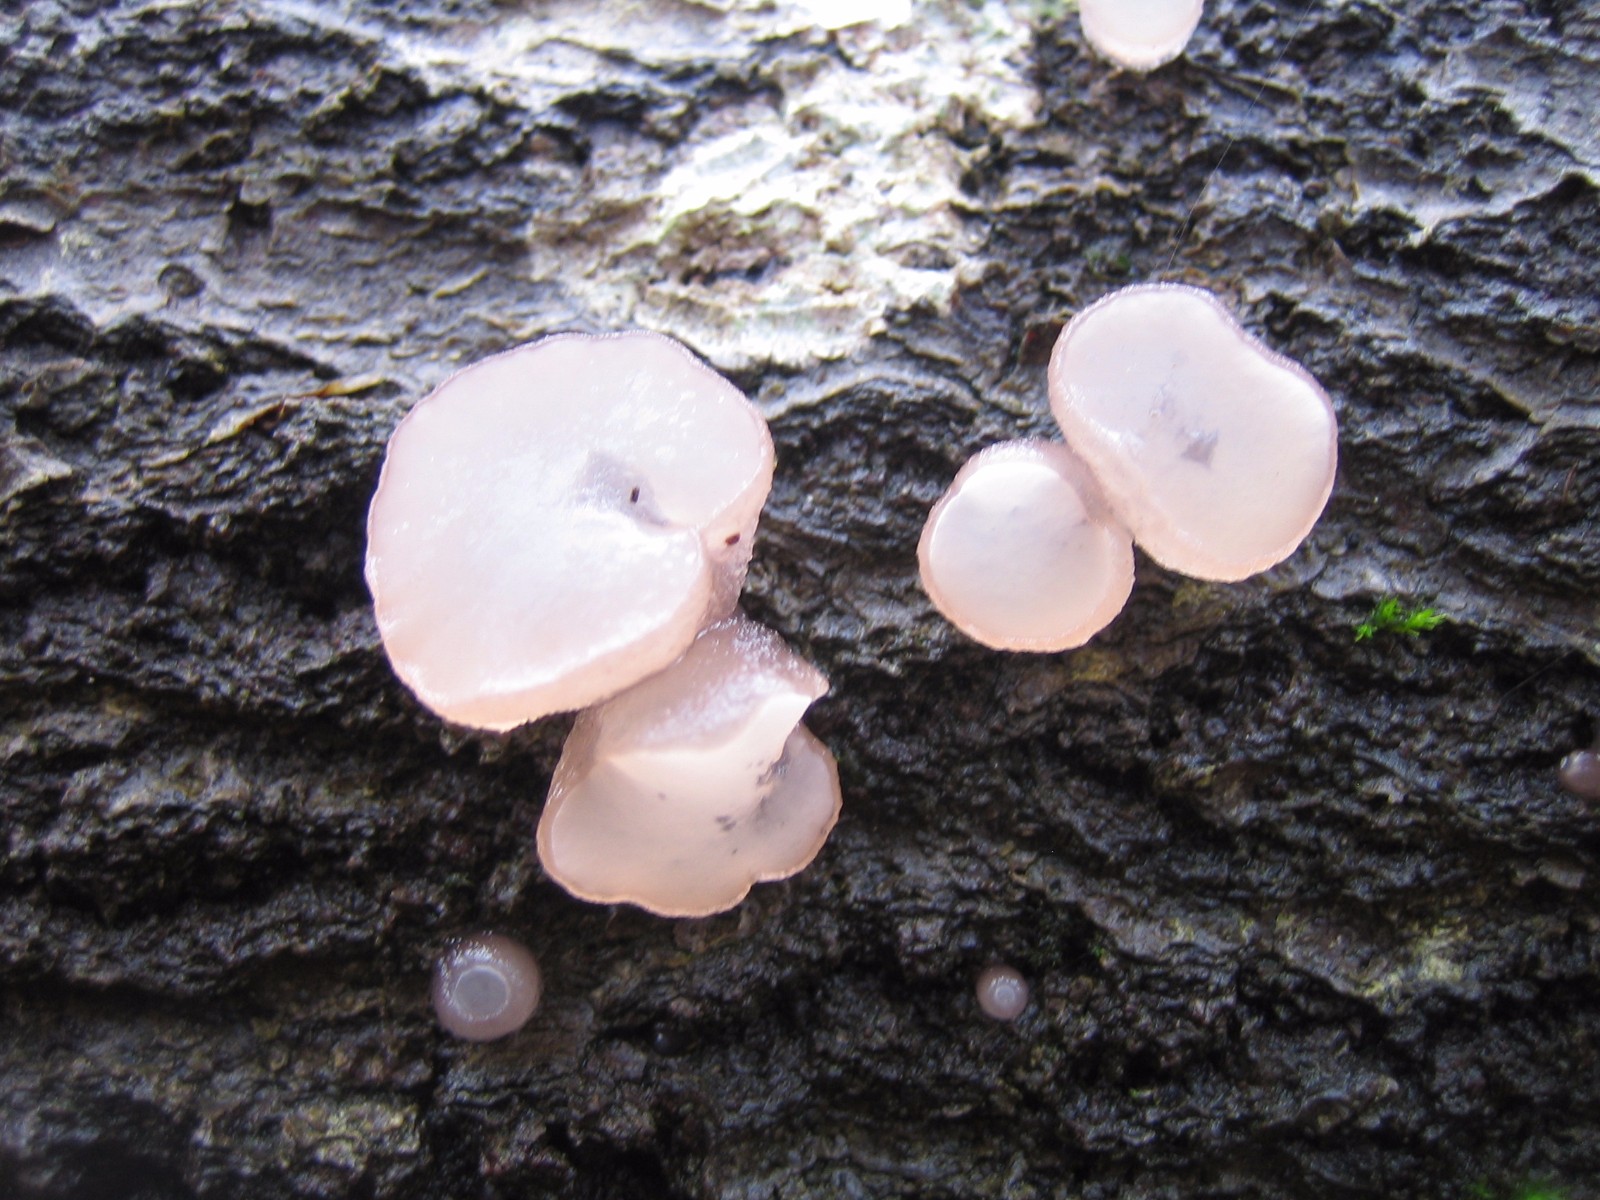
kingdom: Fungi
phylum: Ascomycota
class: Leotiomycetes
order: Helotiales
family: Gelatinodiscaceae
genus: Neobulgaria
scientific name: Neobulgaria pura
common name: bleg bævreskive
